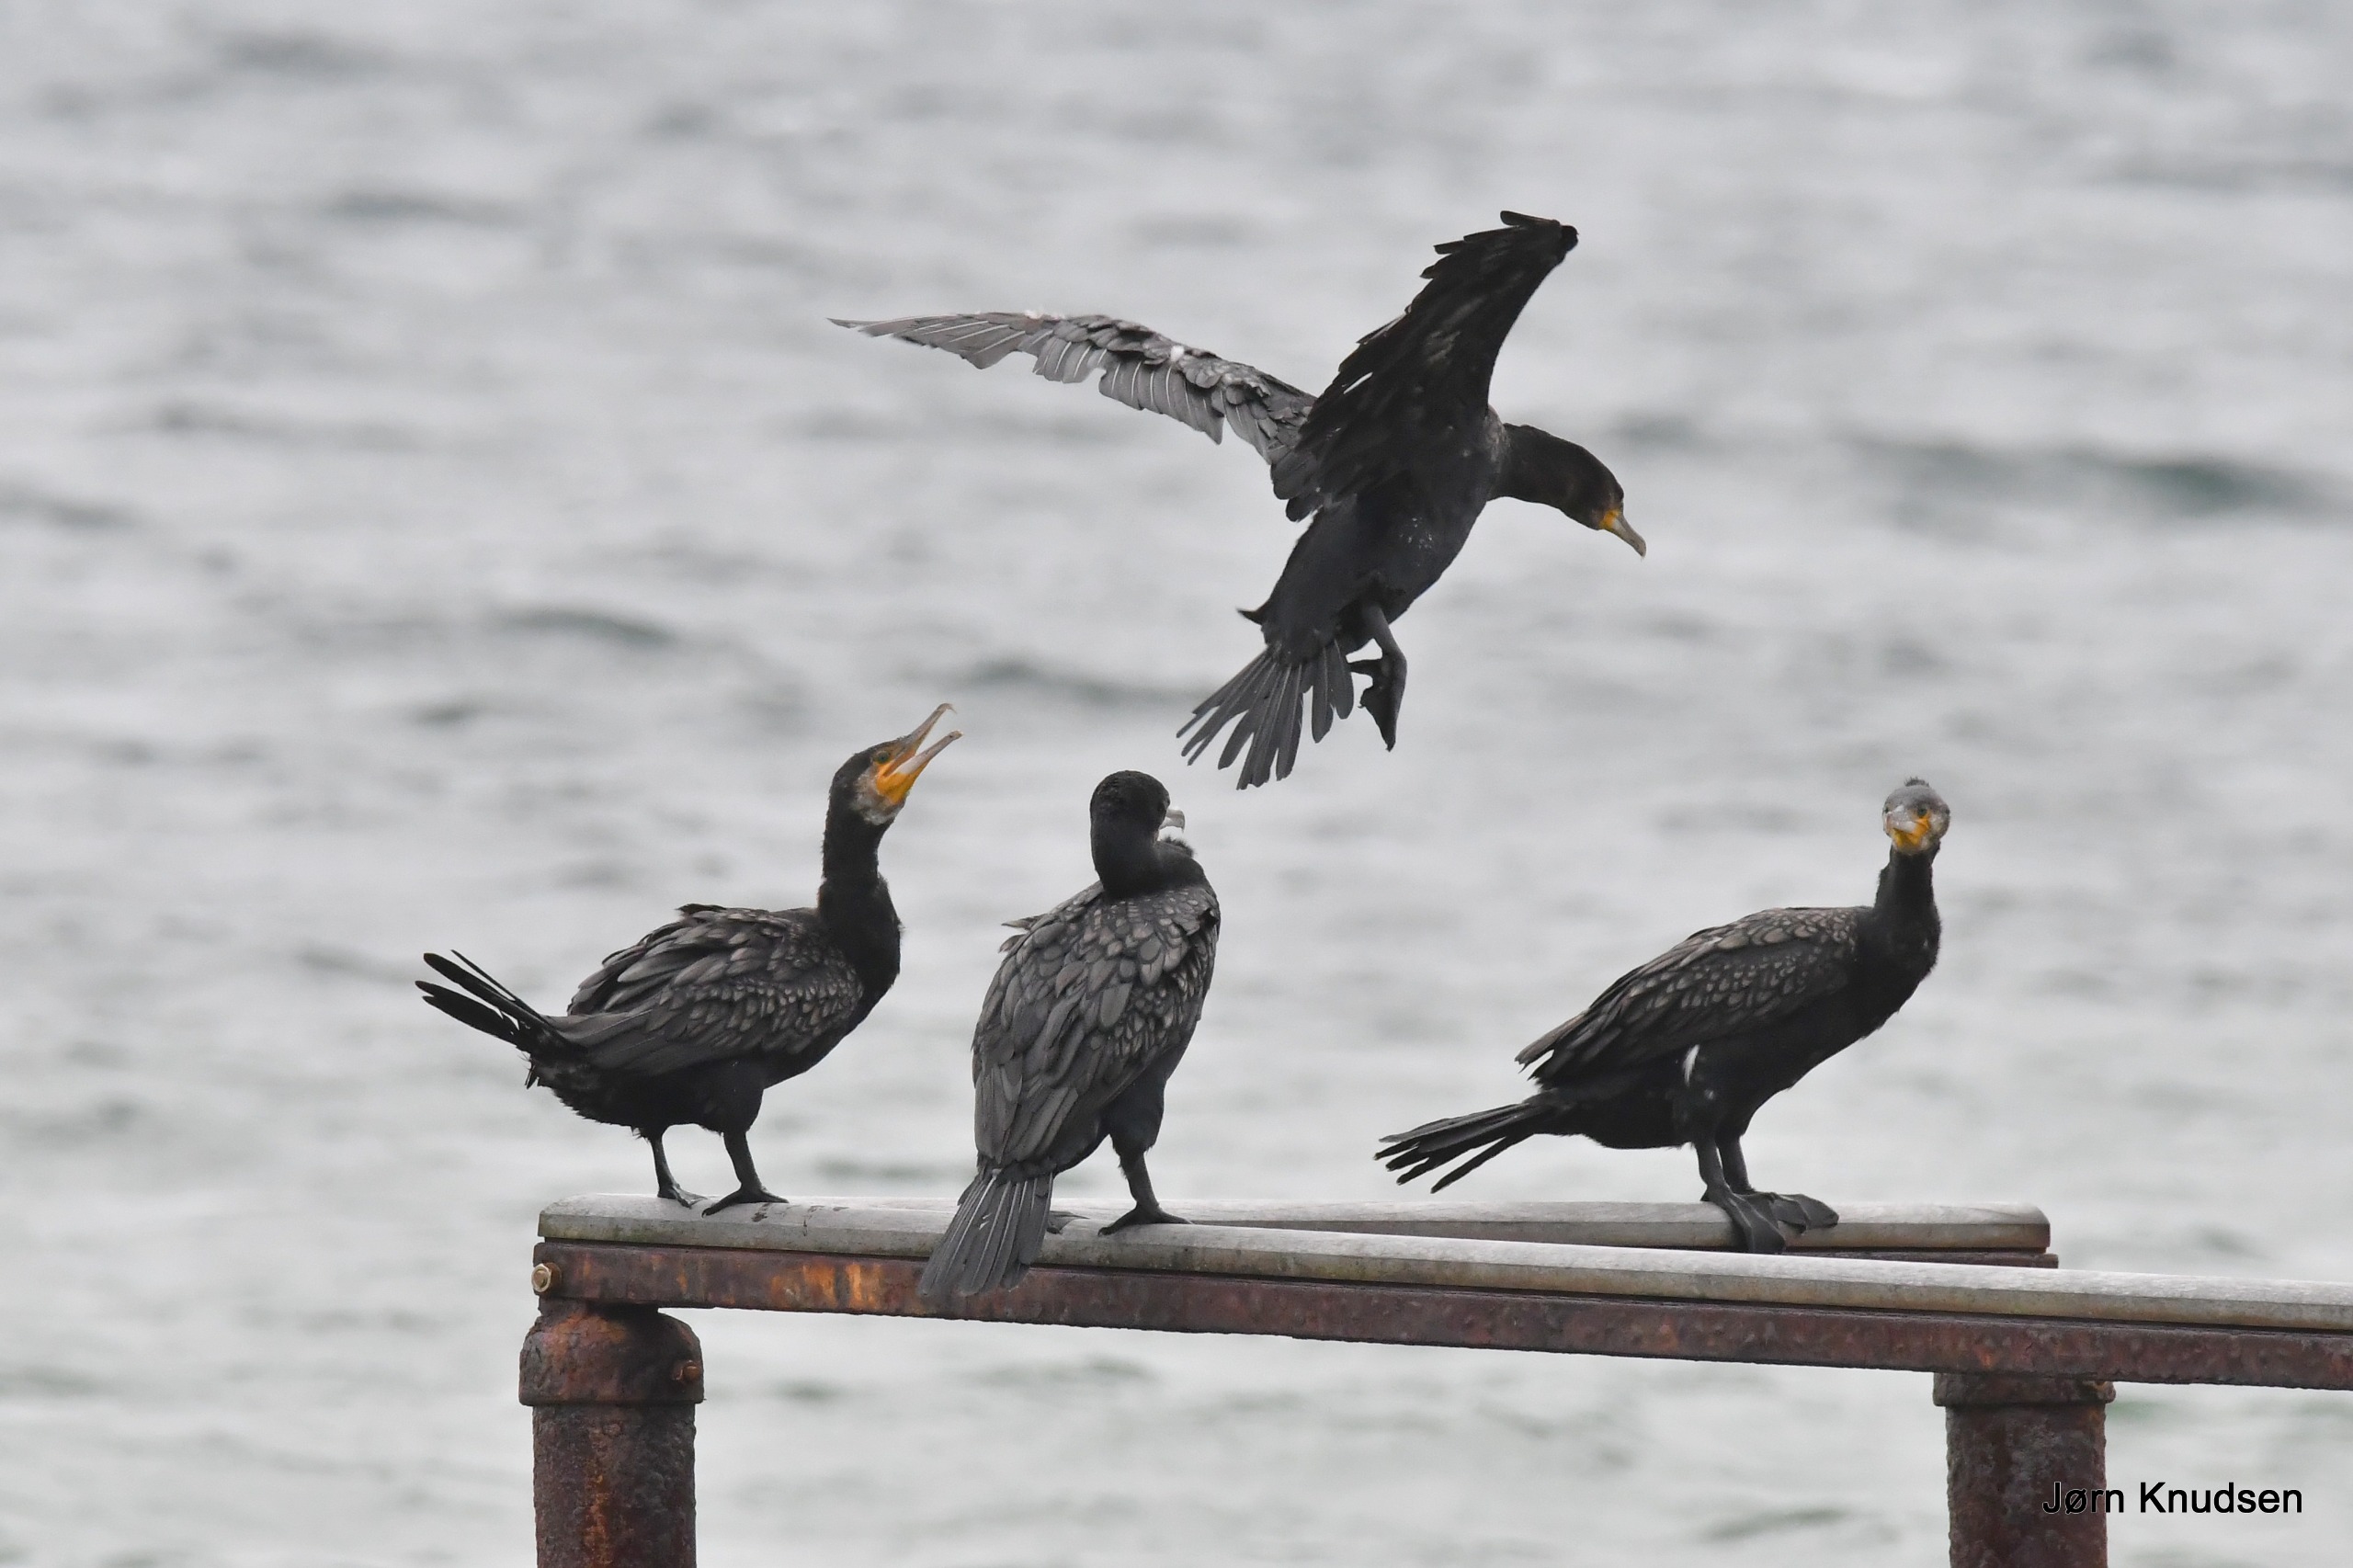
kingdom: Animalia
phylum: Chordata
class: Aves
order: Suliformes
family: Phalacrocoracidae
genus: Phalacrocorax
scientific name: Phalacrocorax carbo
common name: Skarv
